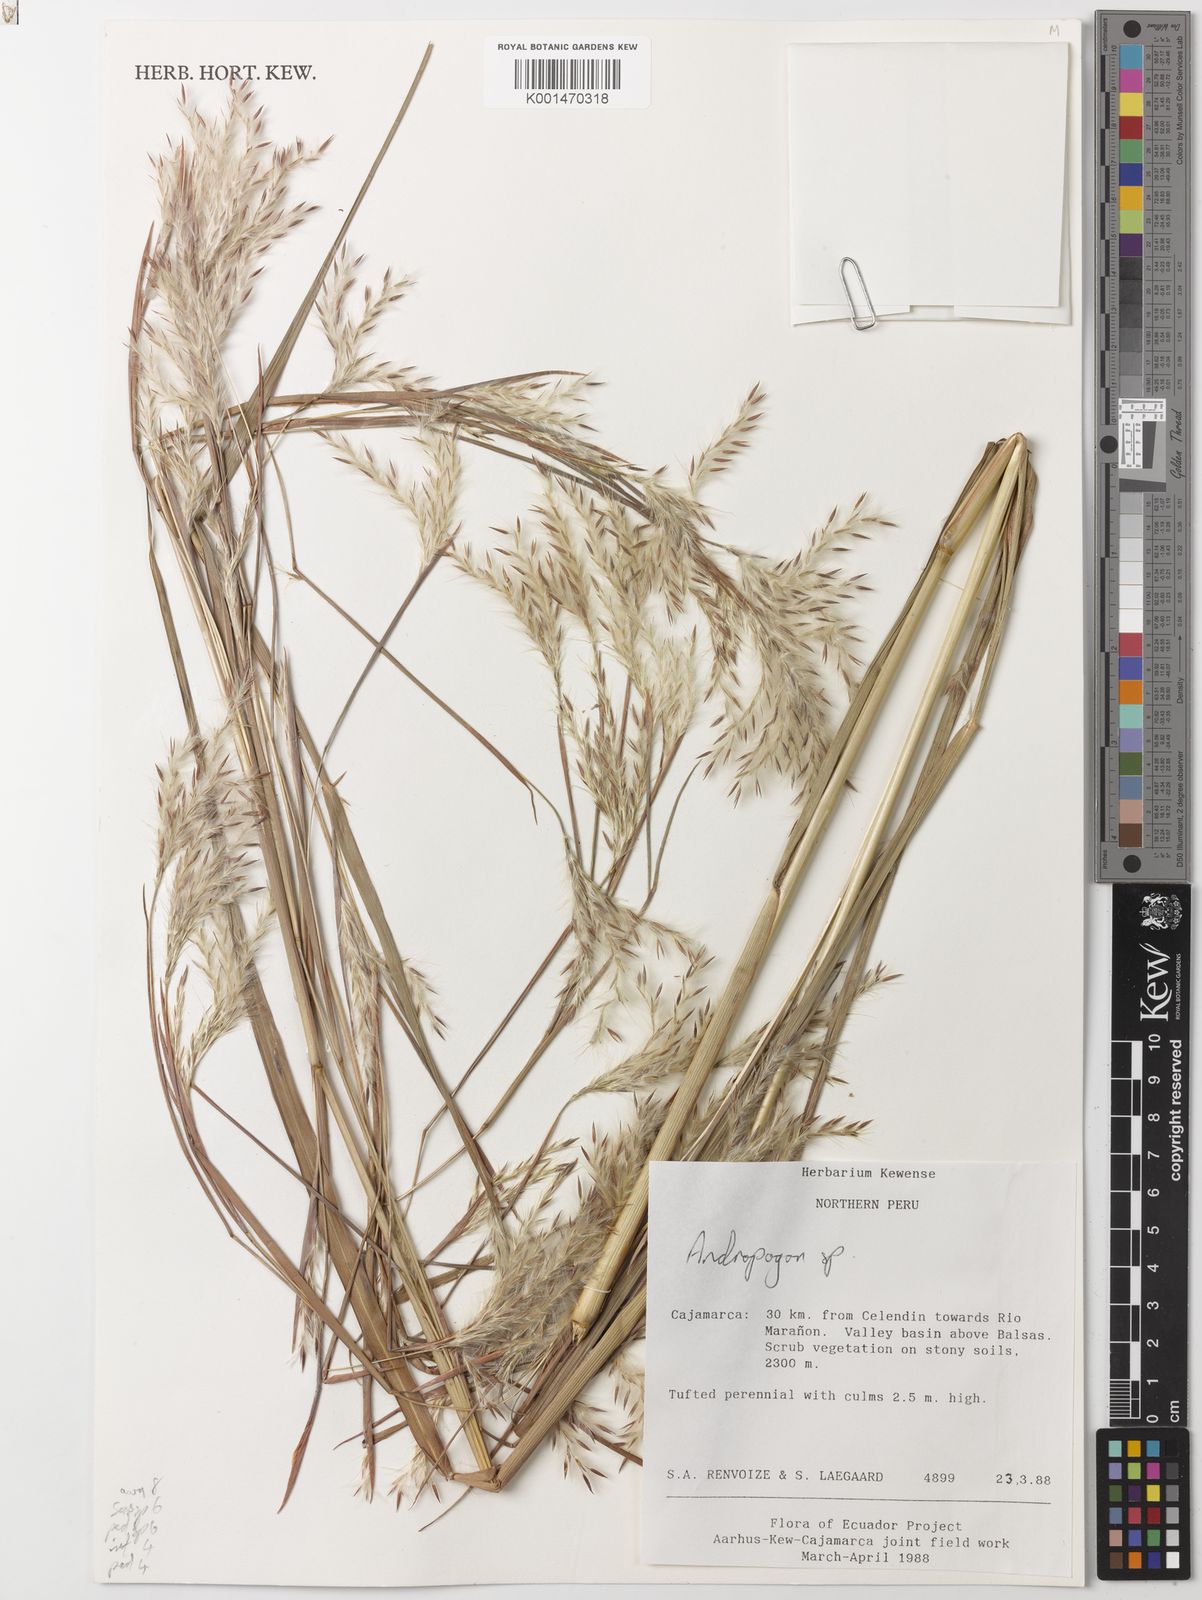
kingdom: Plantae
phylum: Tracheophyta
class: Liliopsida
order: Poales
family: Poaceae
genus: Schizachyrium
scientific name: Schizachyrium sanguineum
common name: Crimson bluestem
